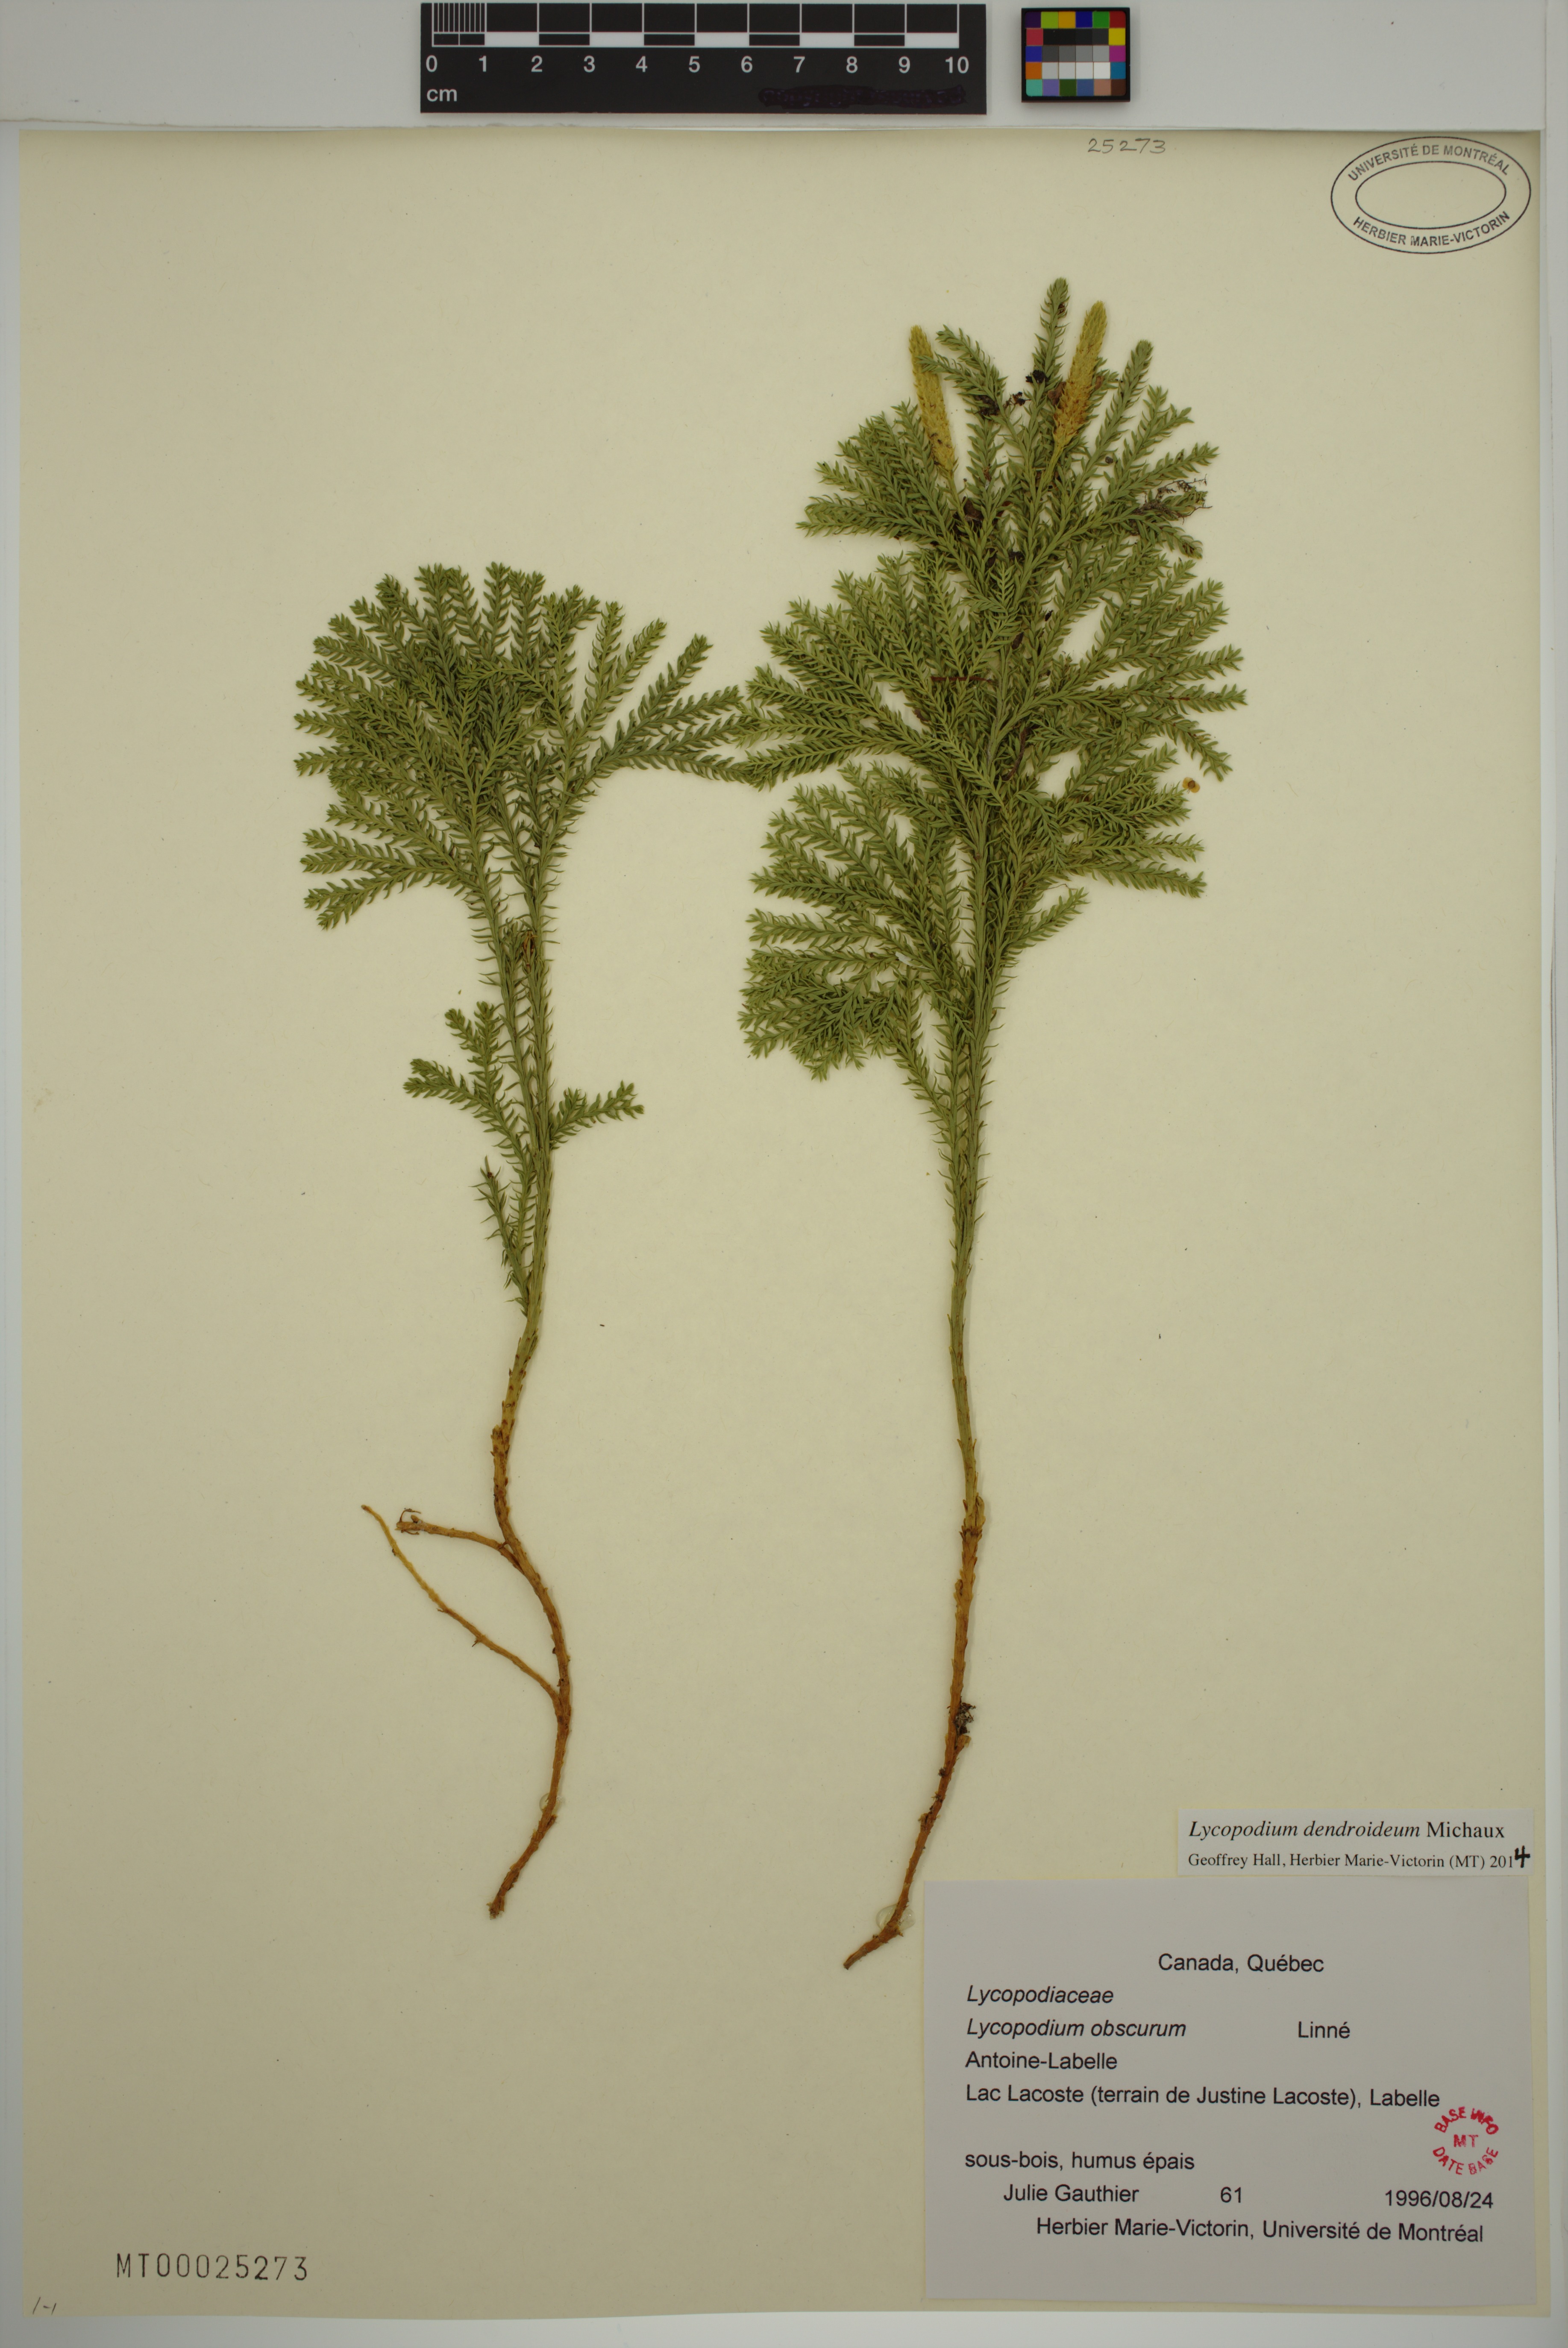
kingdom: Plantae
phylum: Tracheophyta
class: Lycopodiopsida
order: Lycopodiales
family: Lycopodiaceae
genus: Dendrolycopodium
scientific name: Dendrolycopodium dendroideum
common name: Northern tree-clubmoss
